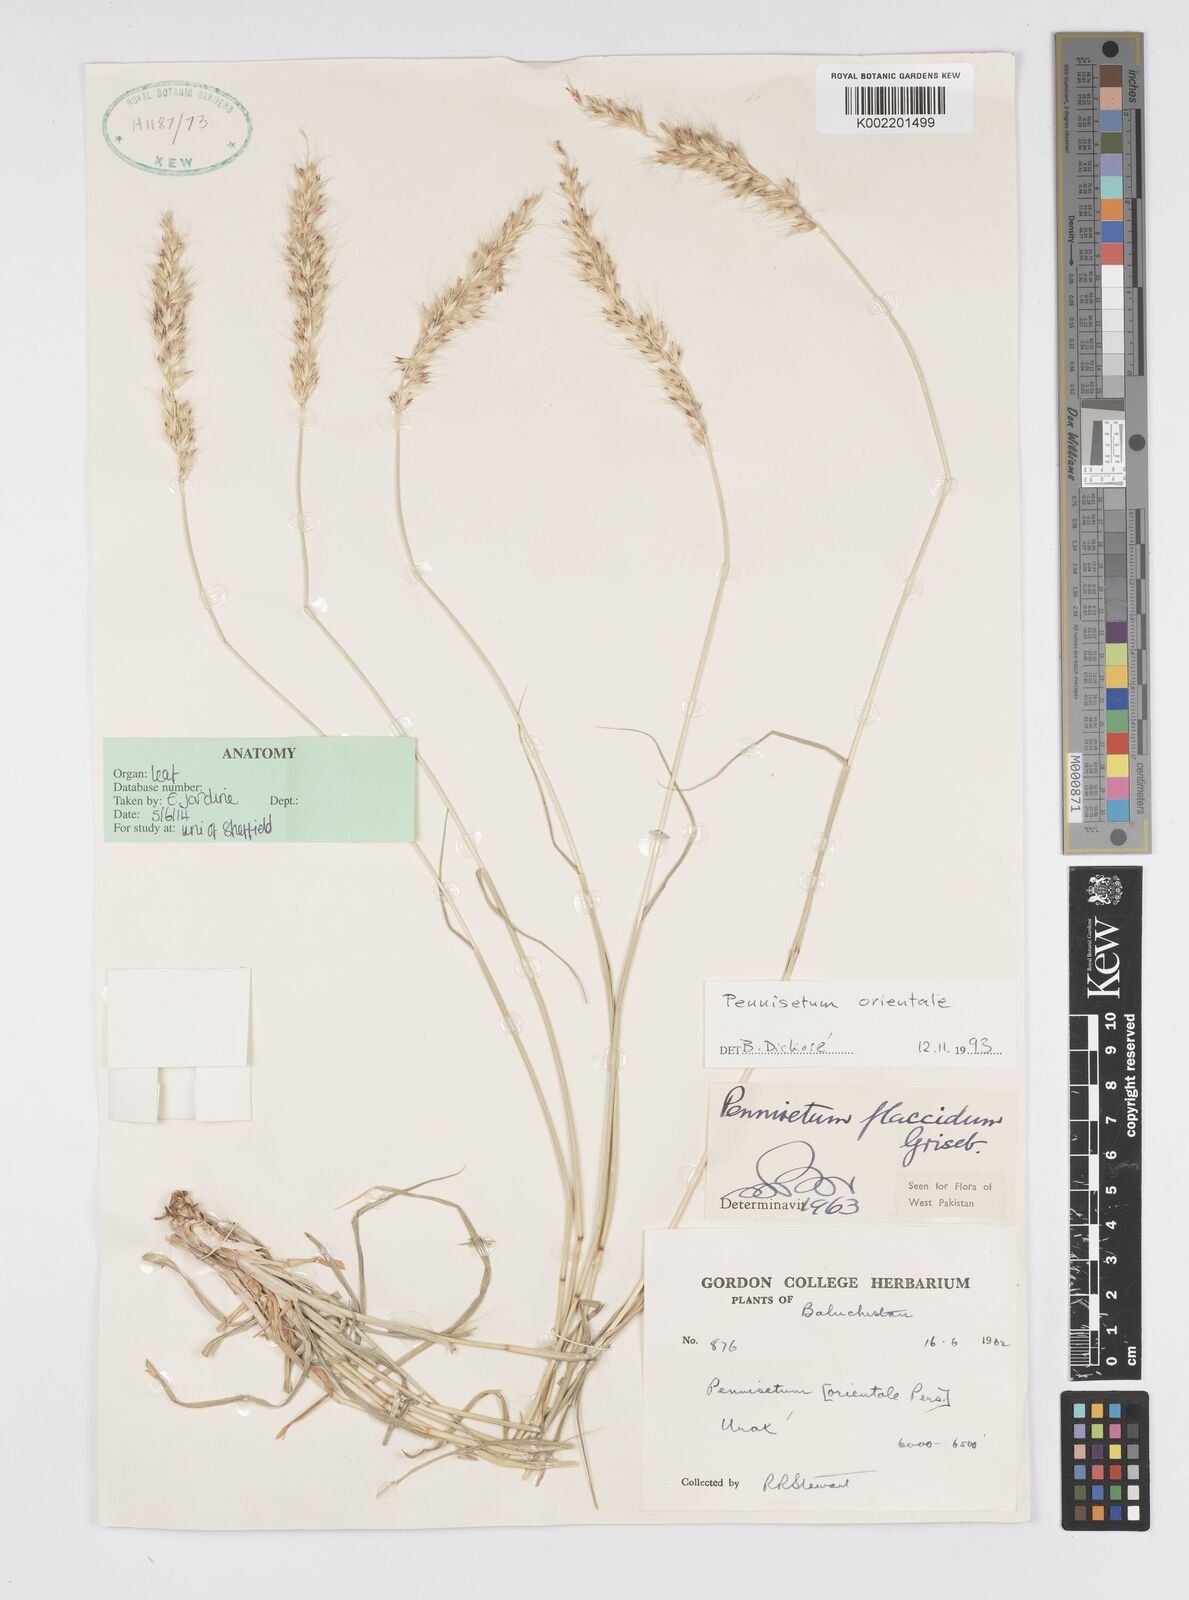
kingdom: Plantae
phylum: Tracheophyta
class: Liliopsida
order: Poales
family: Poaceae
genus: Cenchrus
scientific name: Cenchrus orientalis
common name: Oriental fountain grass
